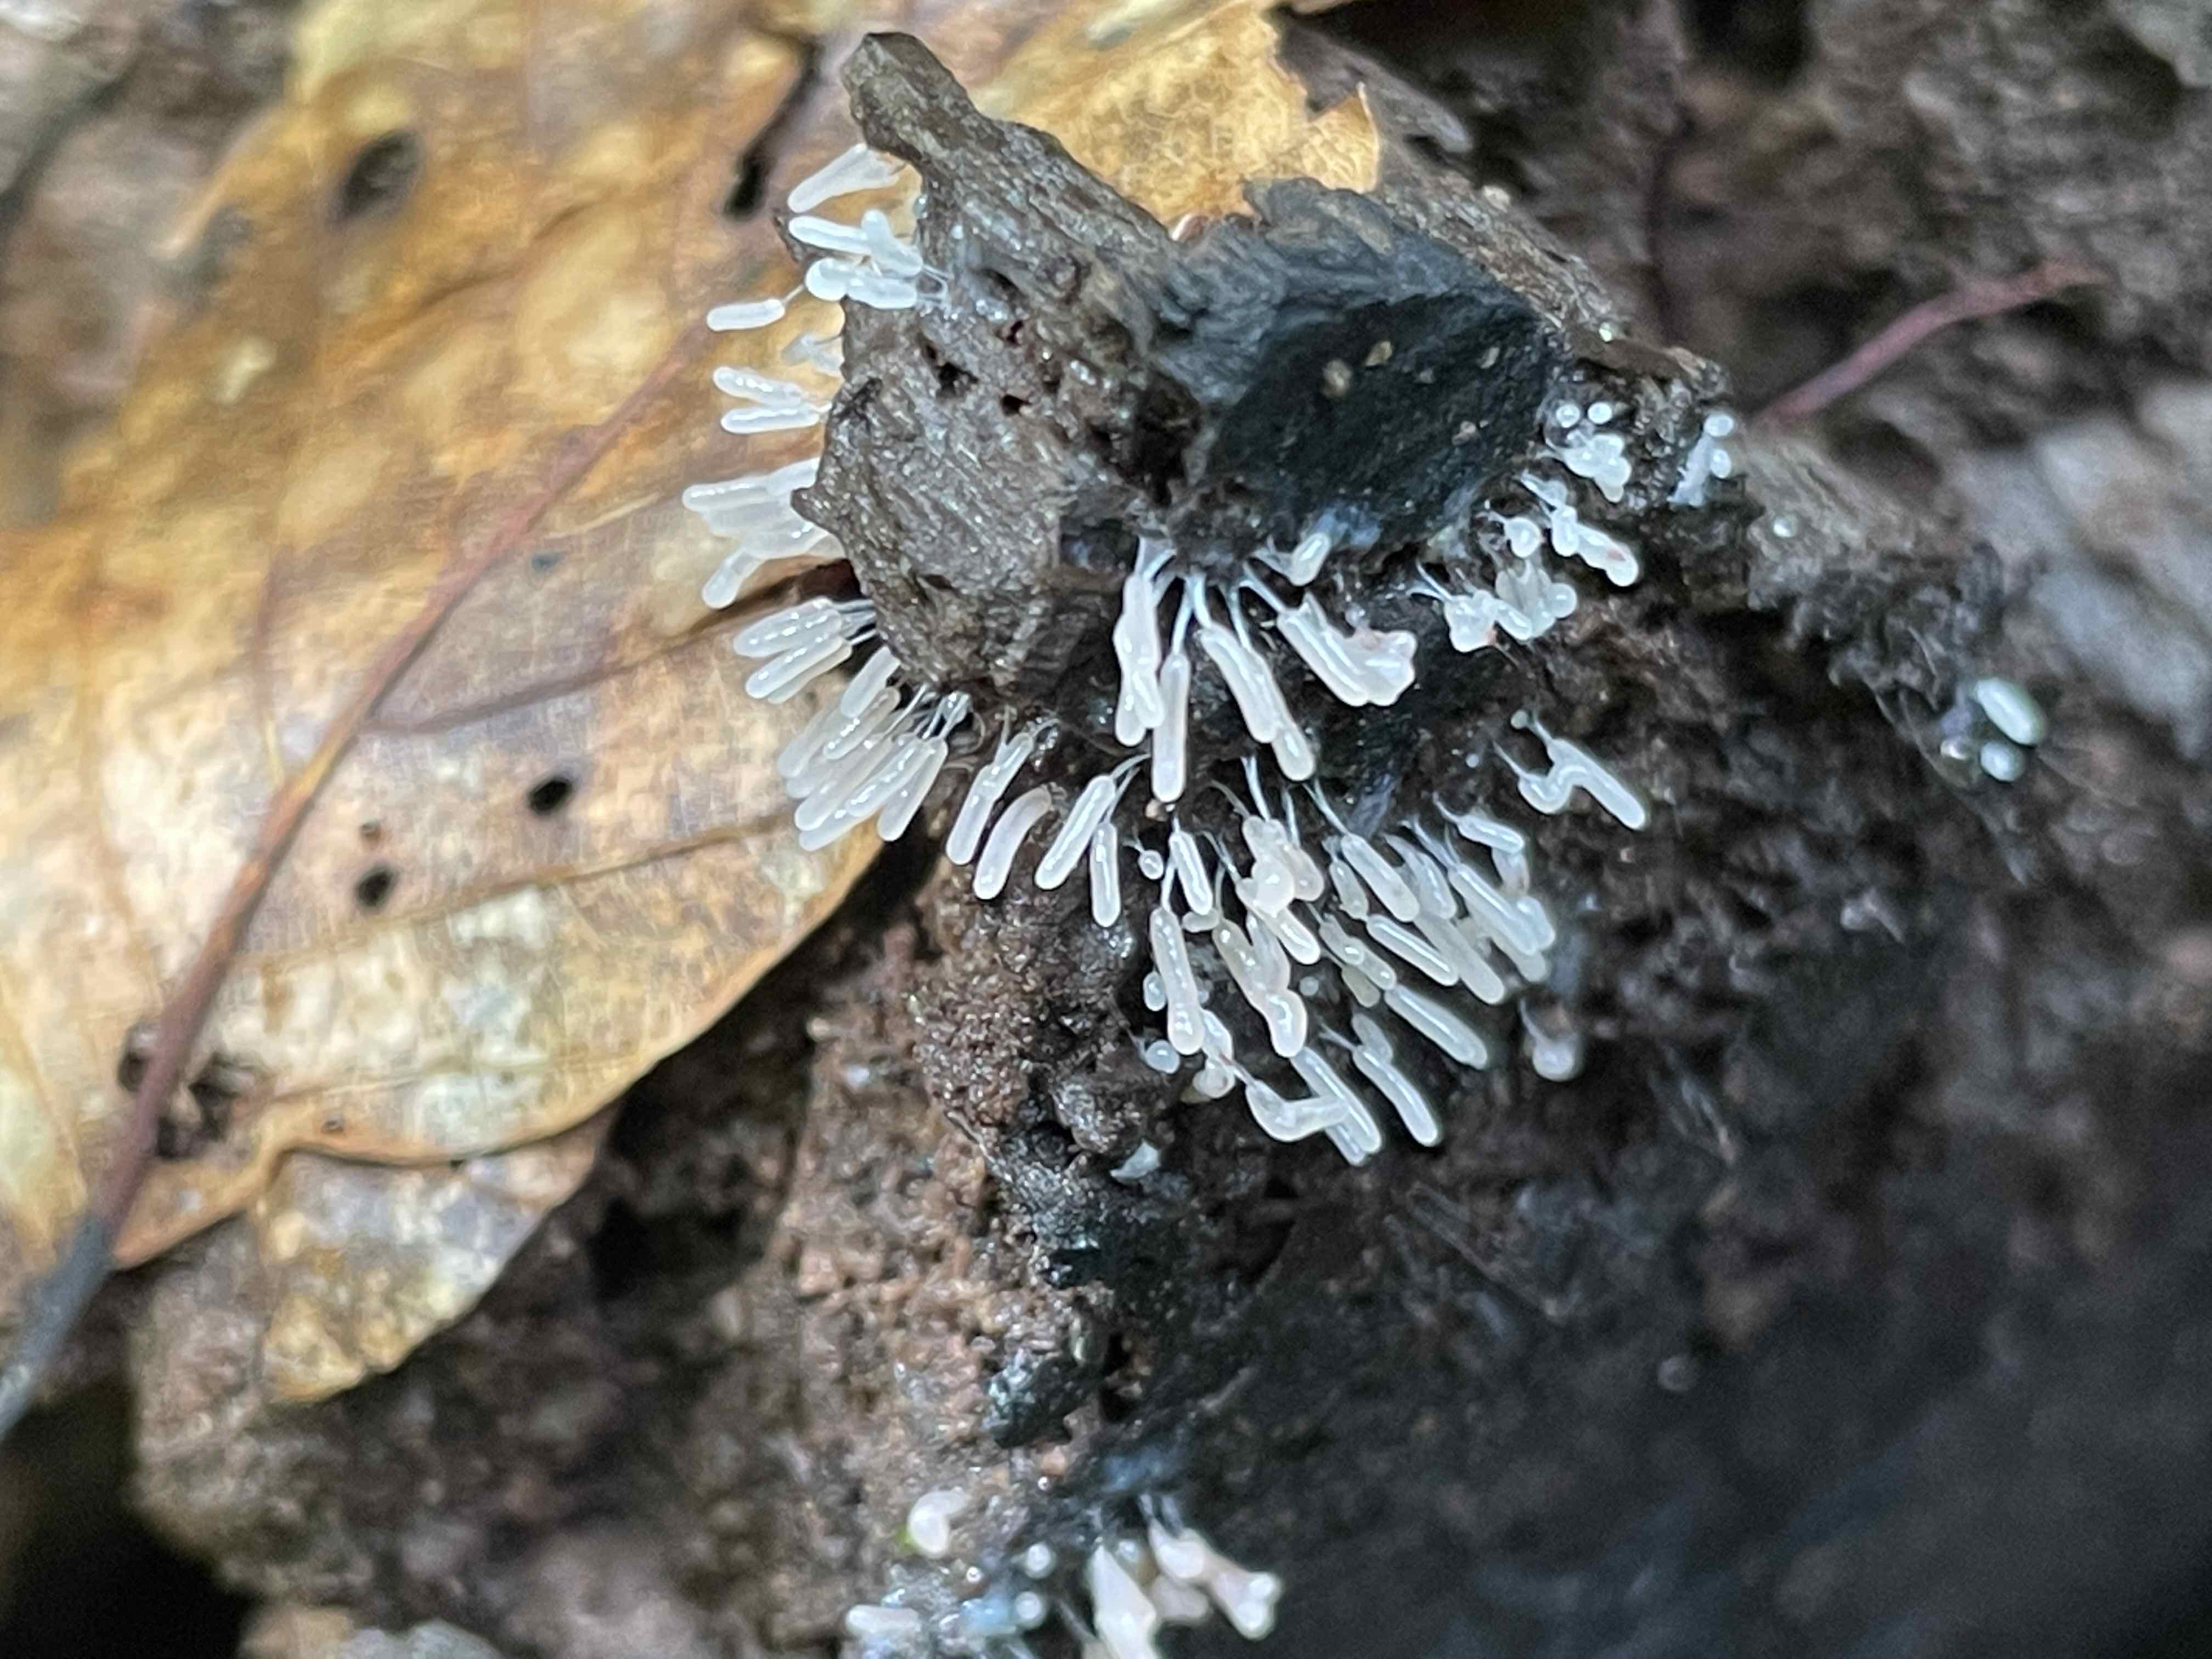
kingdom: Protozoa
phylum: Mycetozoa
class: Myxomycetes
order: Stemonitidales
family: Stemonitidaceae
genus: Stemonitopsis
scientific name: Stemonitopsis typhina
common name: skinnende støvkølle
